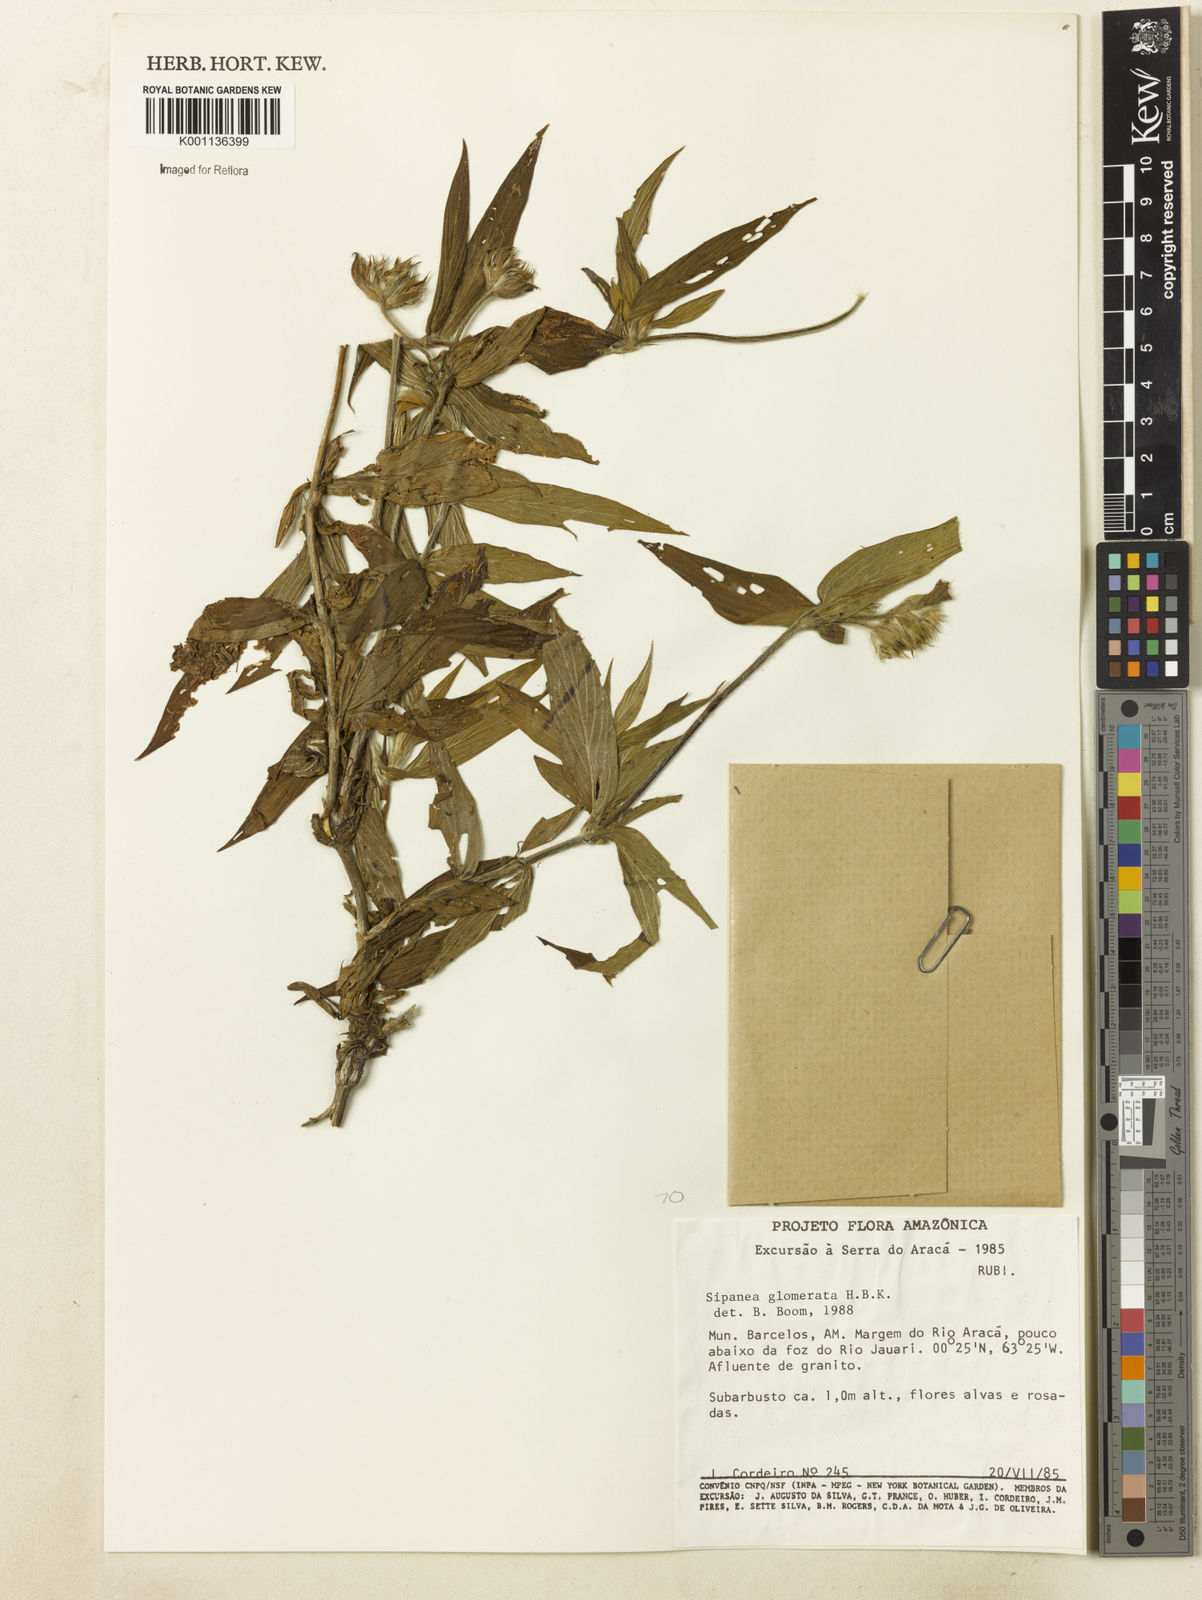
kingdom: Plantae
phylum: Tracheophyta
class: Magnoliopsida
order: Gentianales
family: Rubiaceae
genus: Sipanea
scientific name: Sipanea glomerata
